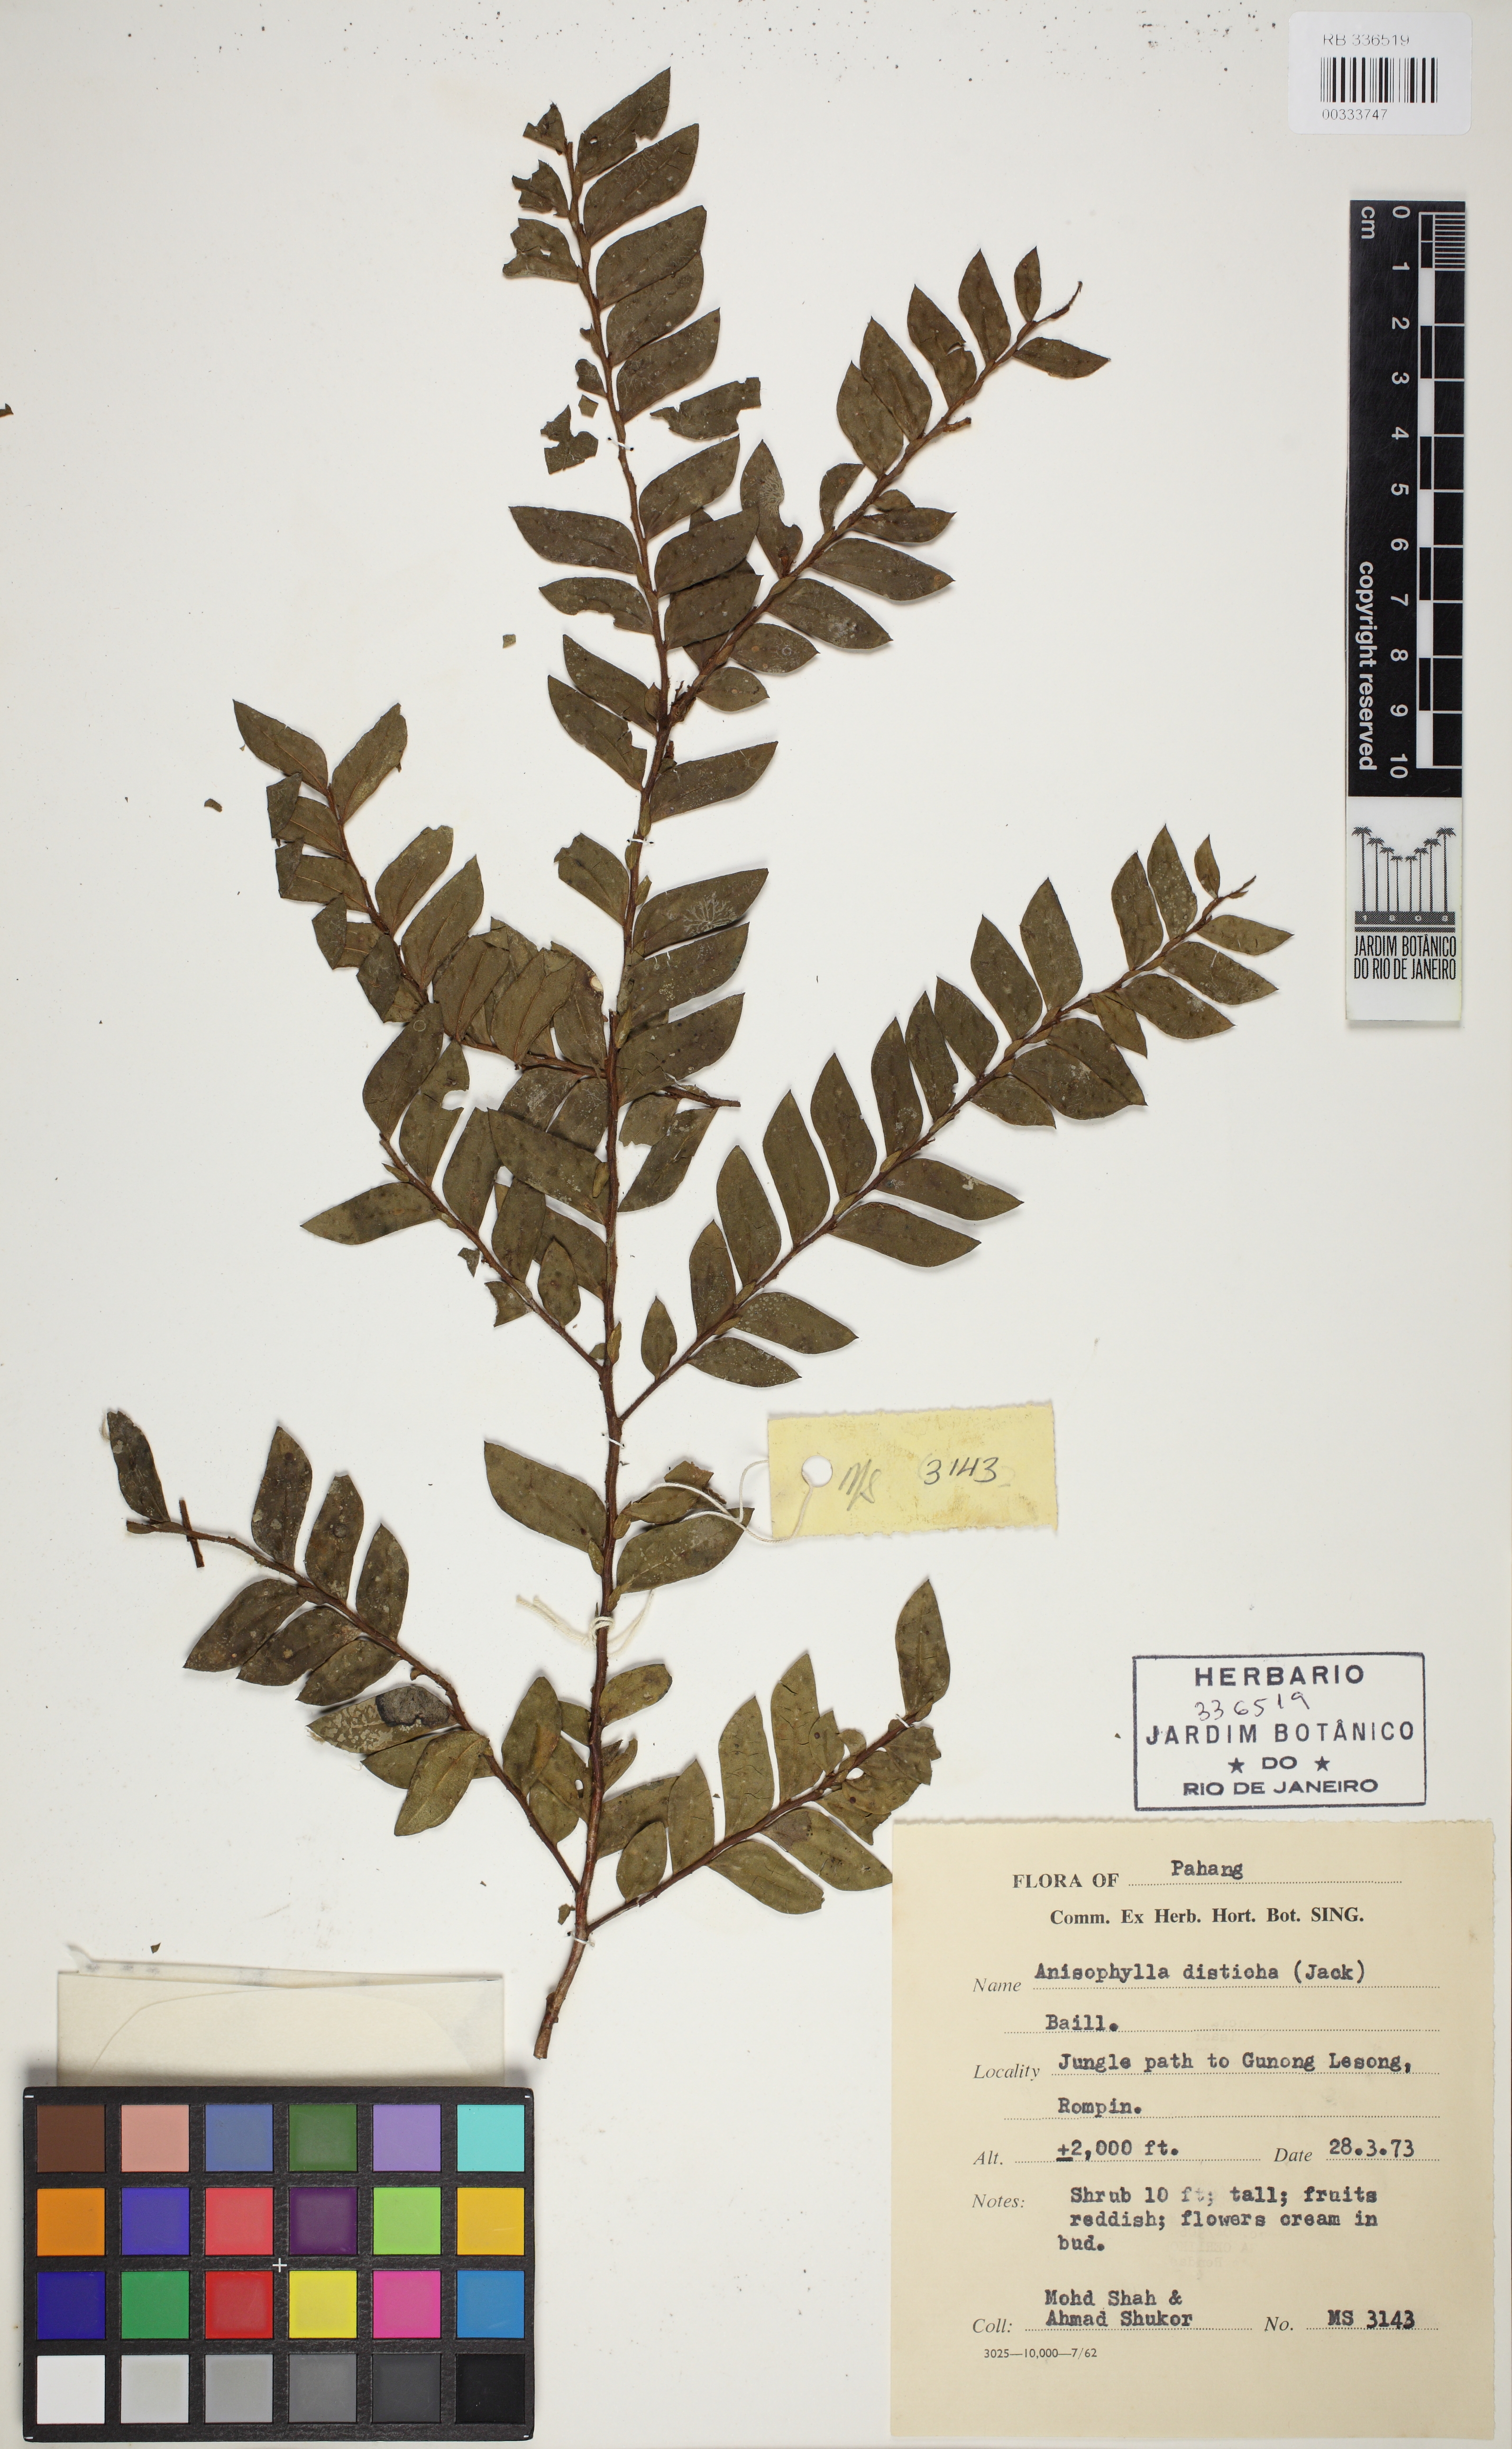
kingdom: Plantae
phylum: Tracheophyta
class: Magnoliopsida
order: Cucurbitales
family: Anisophylleaceae
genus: Anisophyllea
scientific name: Anisophyllea disticha
